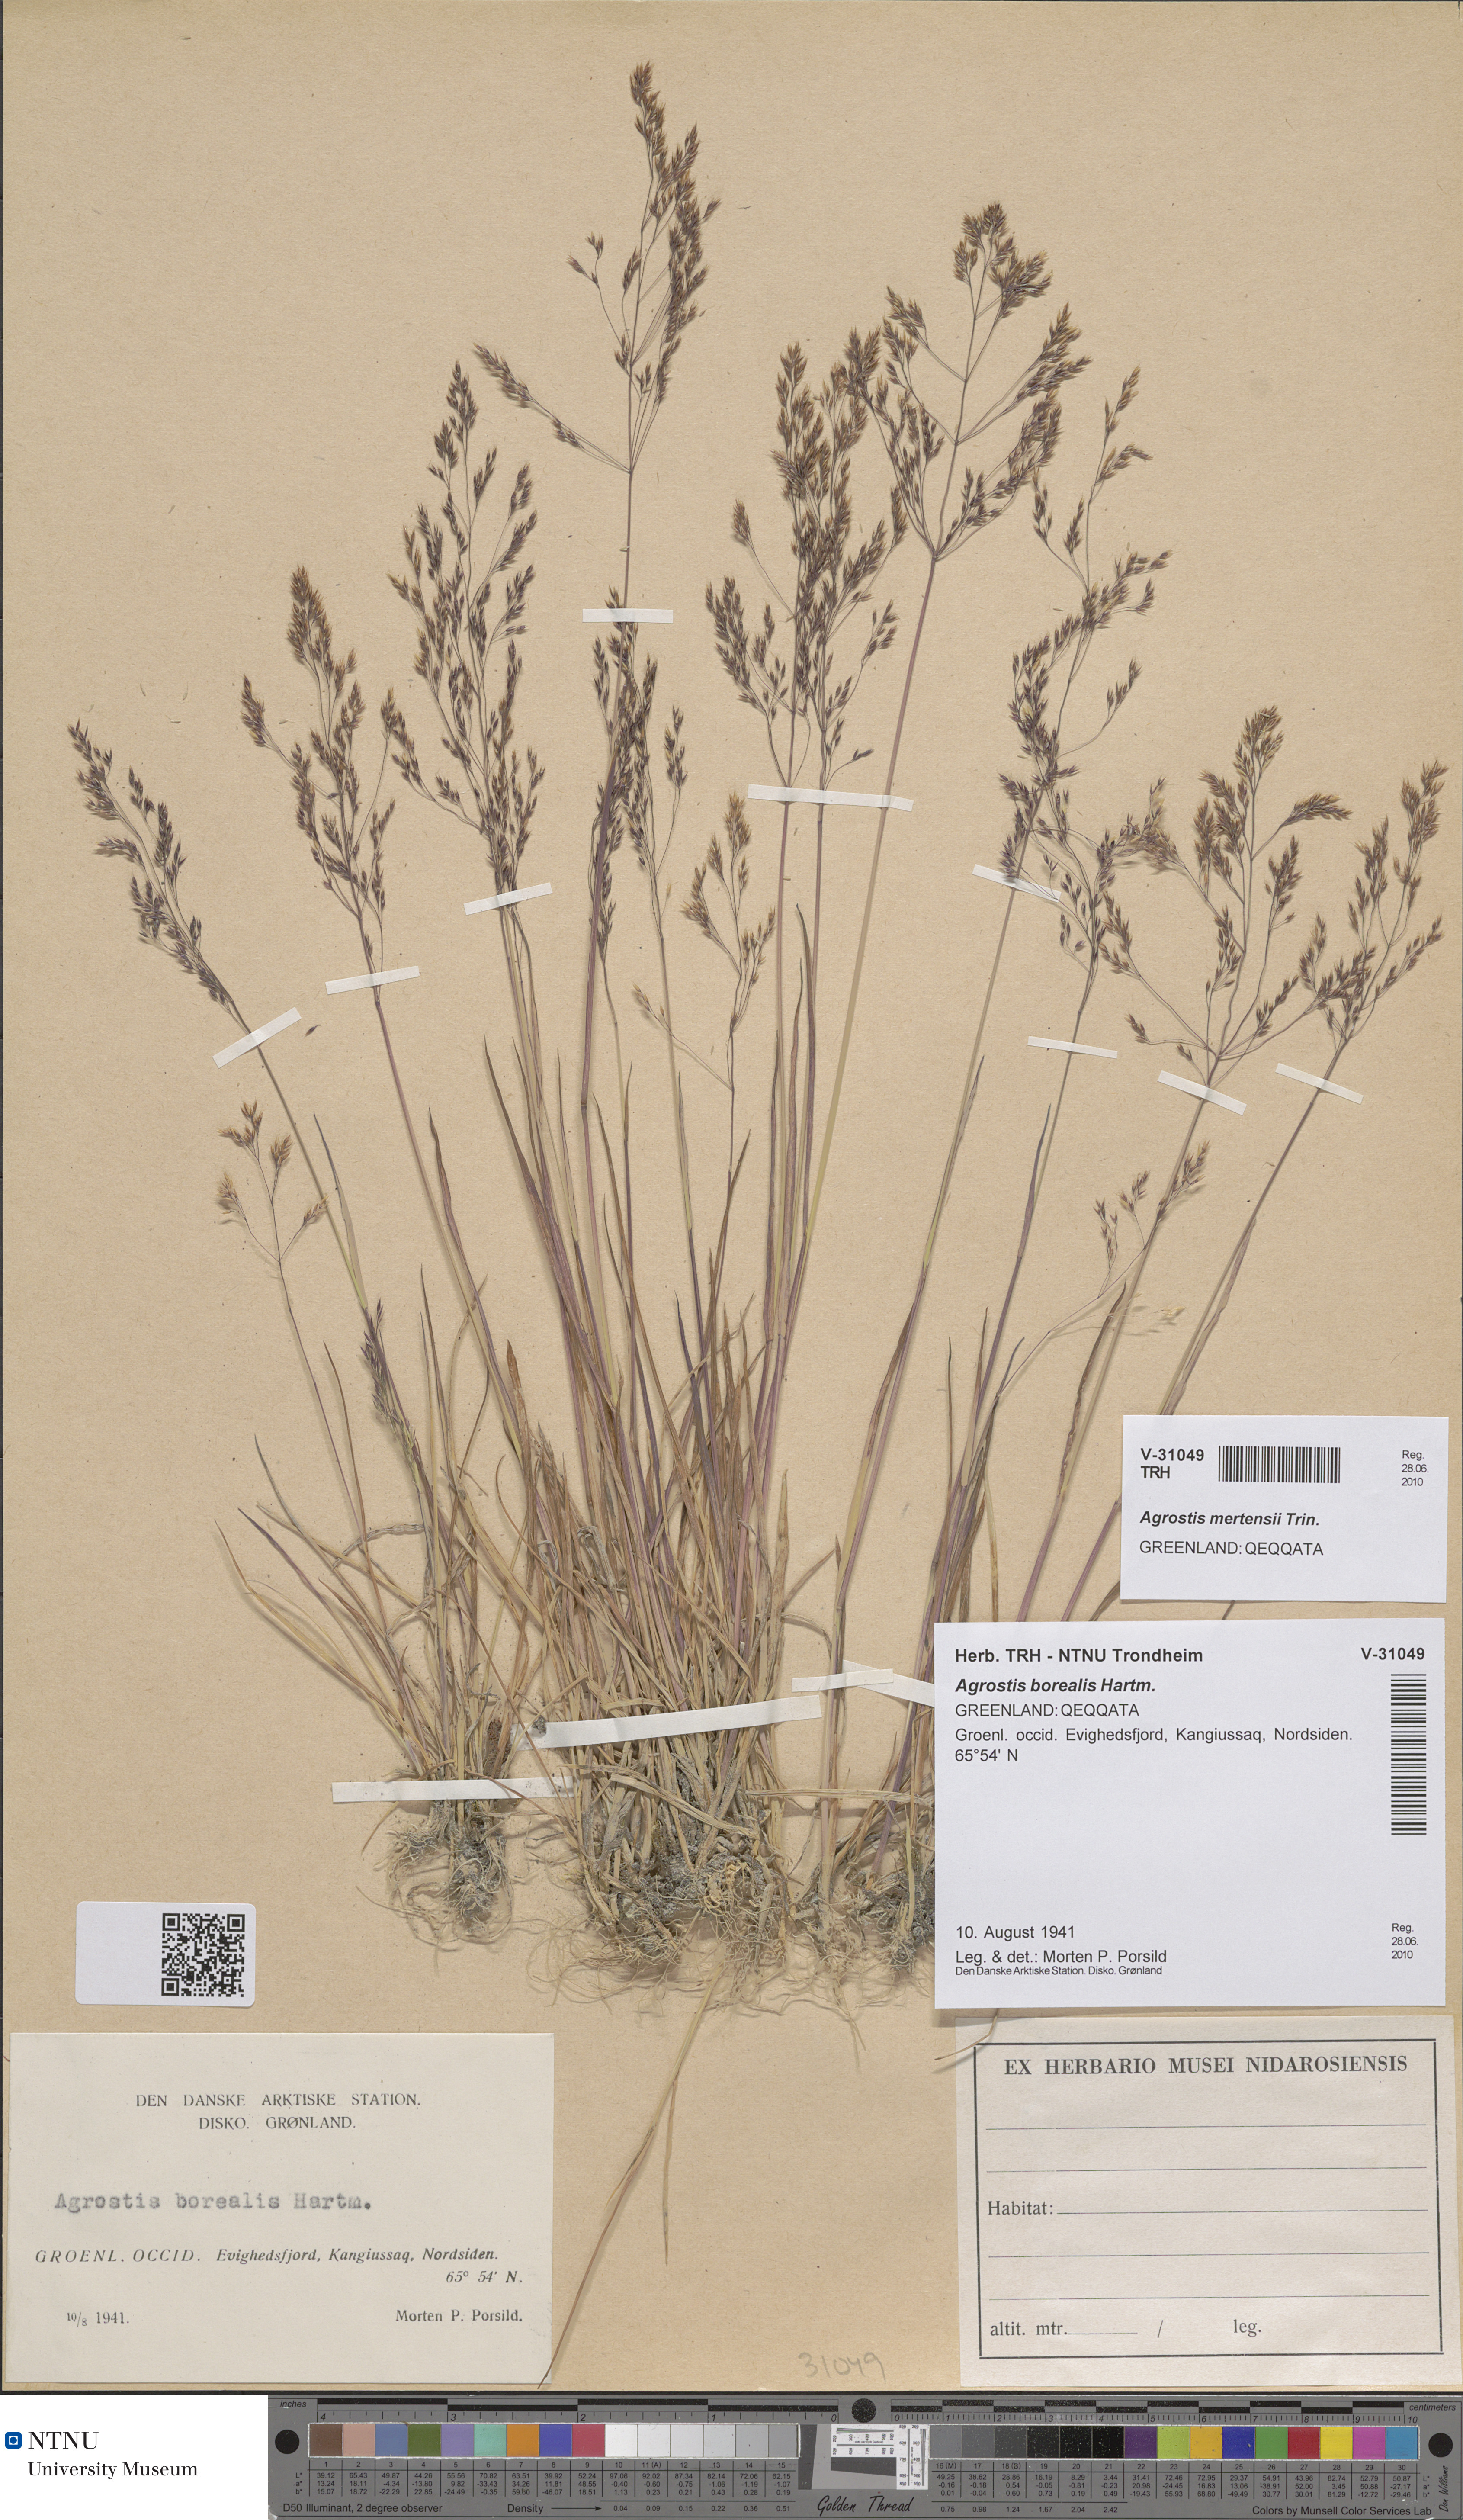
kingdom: Plantae
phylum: Tracheophyta
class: Liliopsida
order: Poales
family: Poaceae
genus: Agrostis
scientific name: Agrostis mertensii
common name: Northern bent
